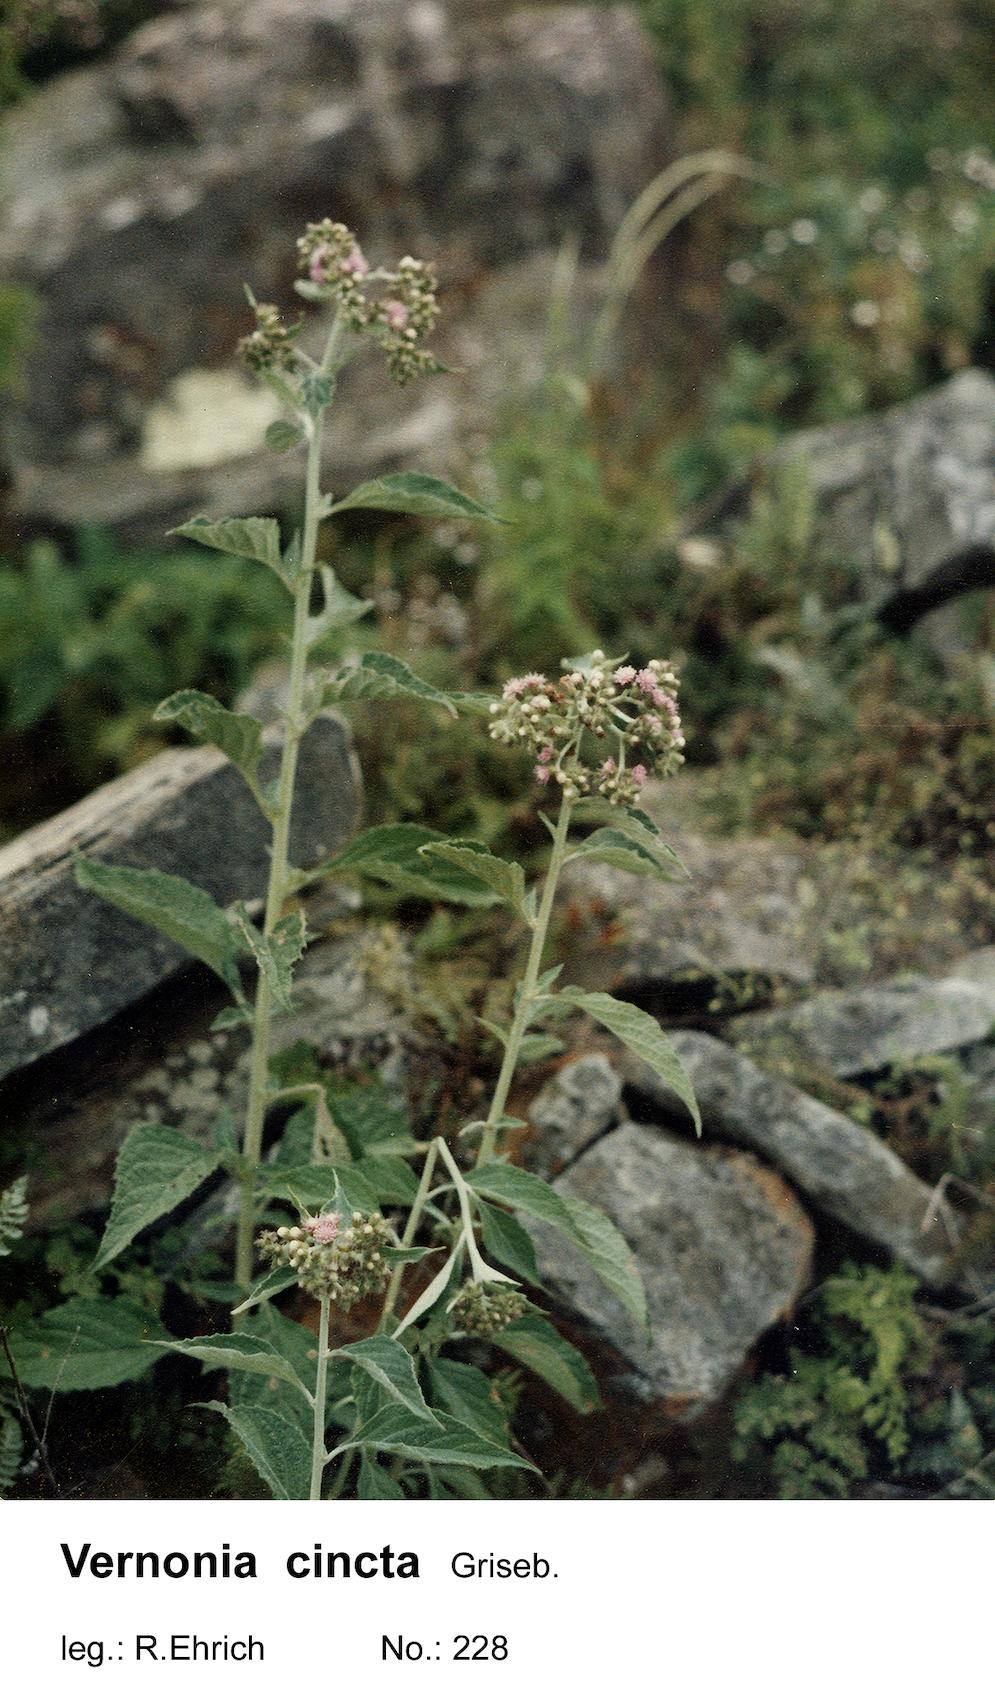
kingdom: Plantae
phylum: Tracheophyta
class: Magnoliopsida
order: Asterales
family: Asteraceae
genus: Cyrtocymura
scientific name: Cyrtocymura cincta
